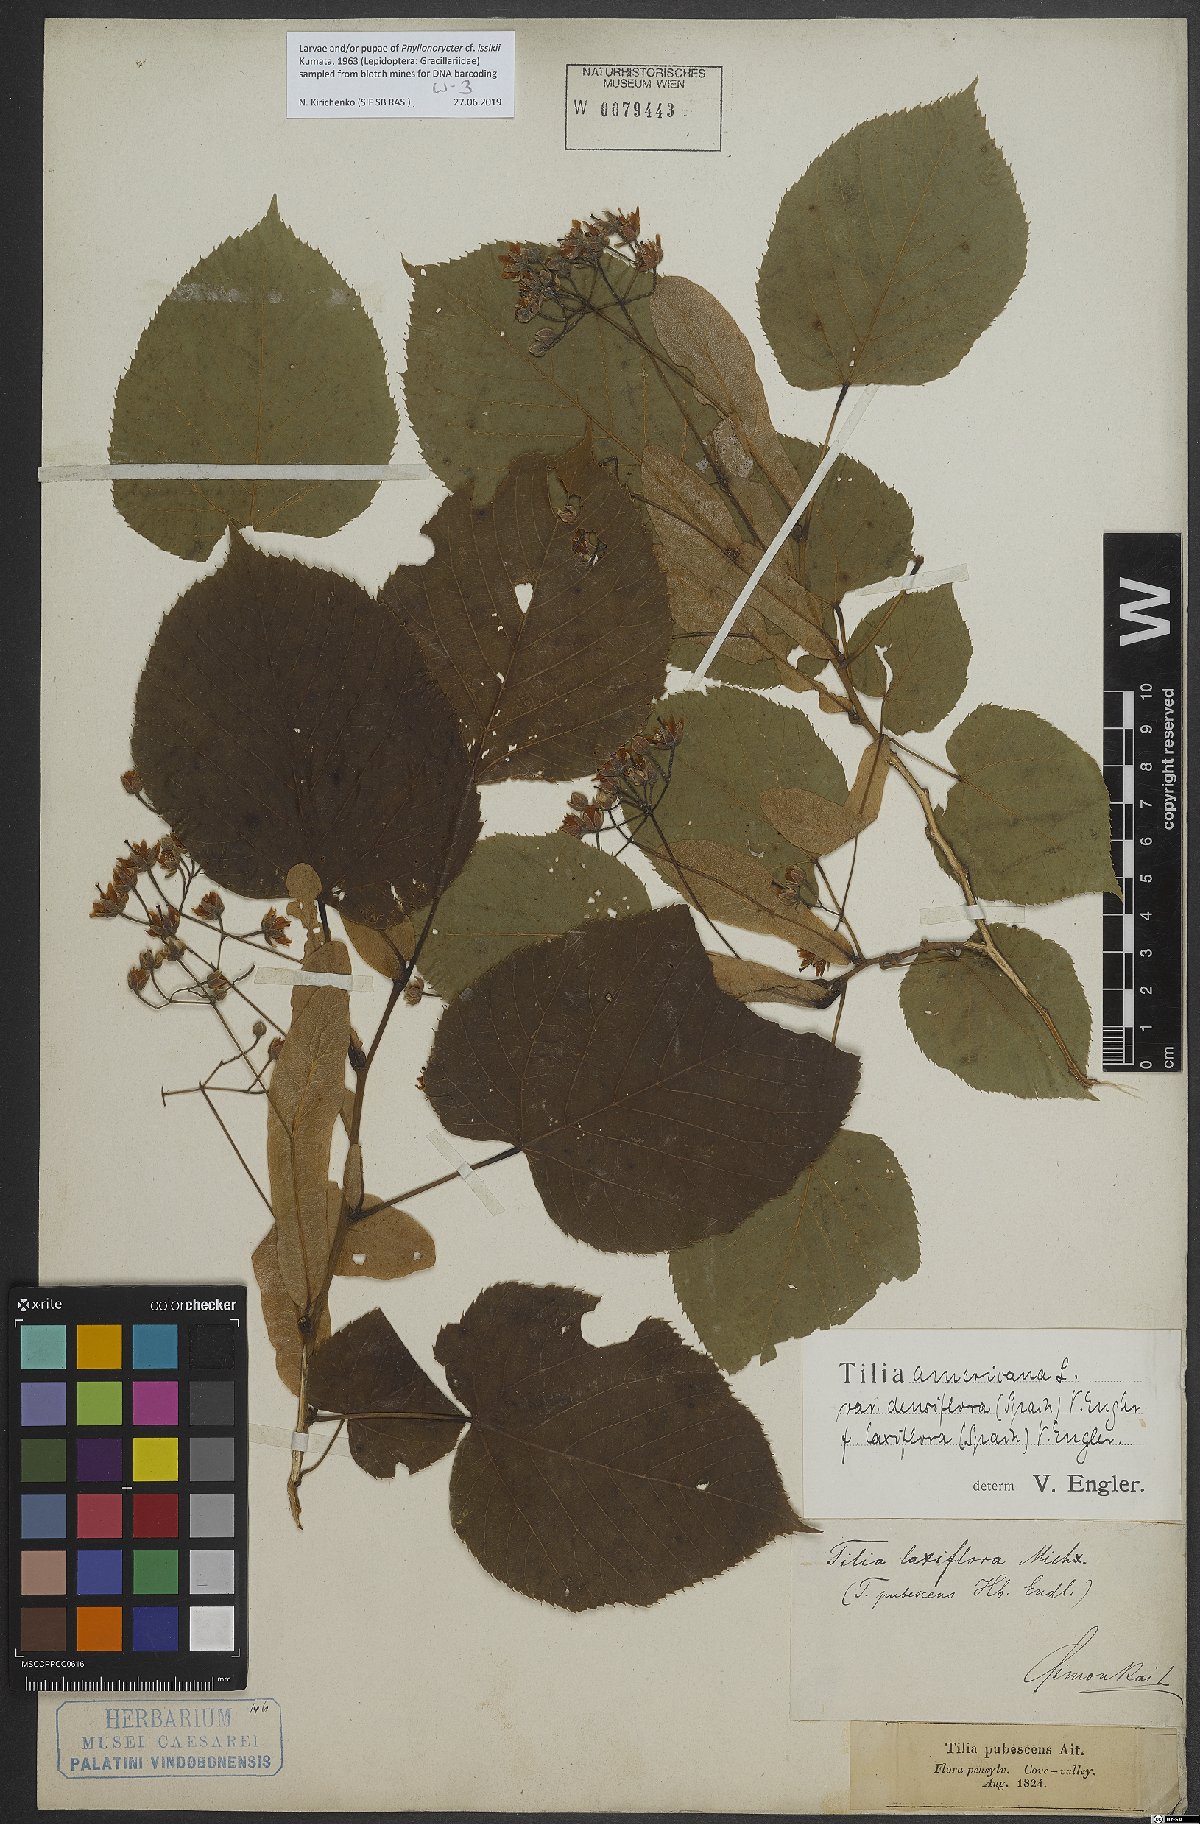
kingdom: Plantae
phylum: Tracheophyta
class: Magnoliopsida
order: Malvales
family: Malvaceae
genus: Tilia
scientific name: Tilia americana
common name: Basswood
